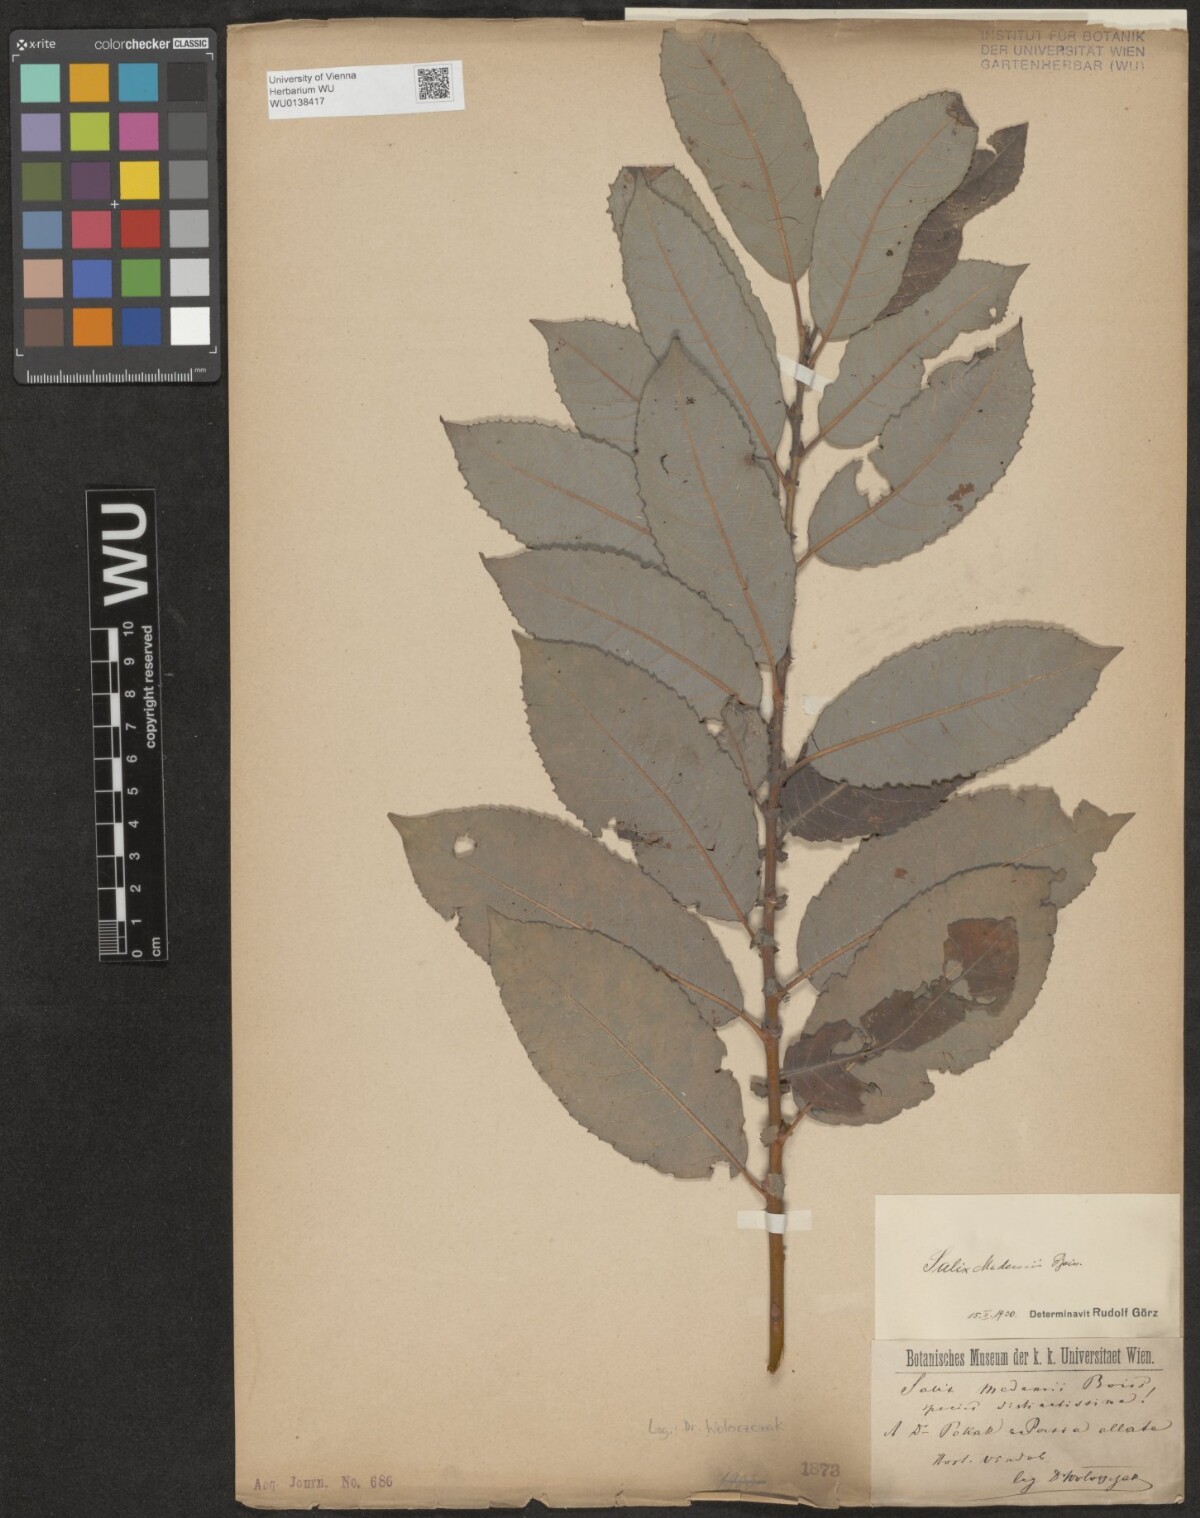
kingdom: Plantae
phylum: Tracheophyta
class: Magnoliopsida
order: Malpighiales
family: Salicaceae
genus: Salix
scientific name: Salix aegyptiaca
